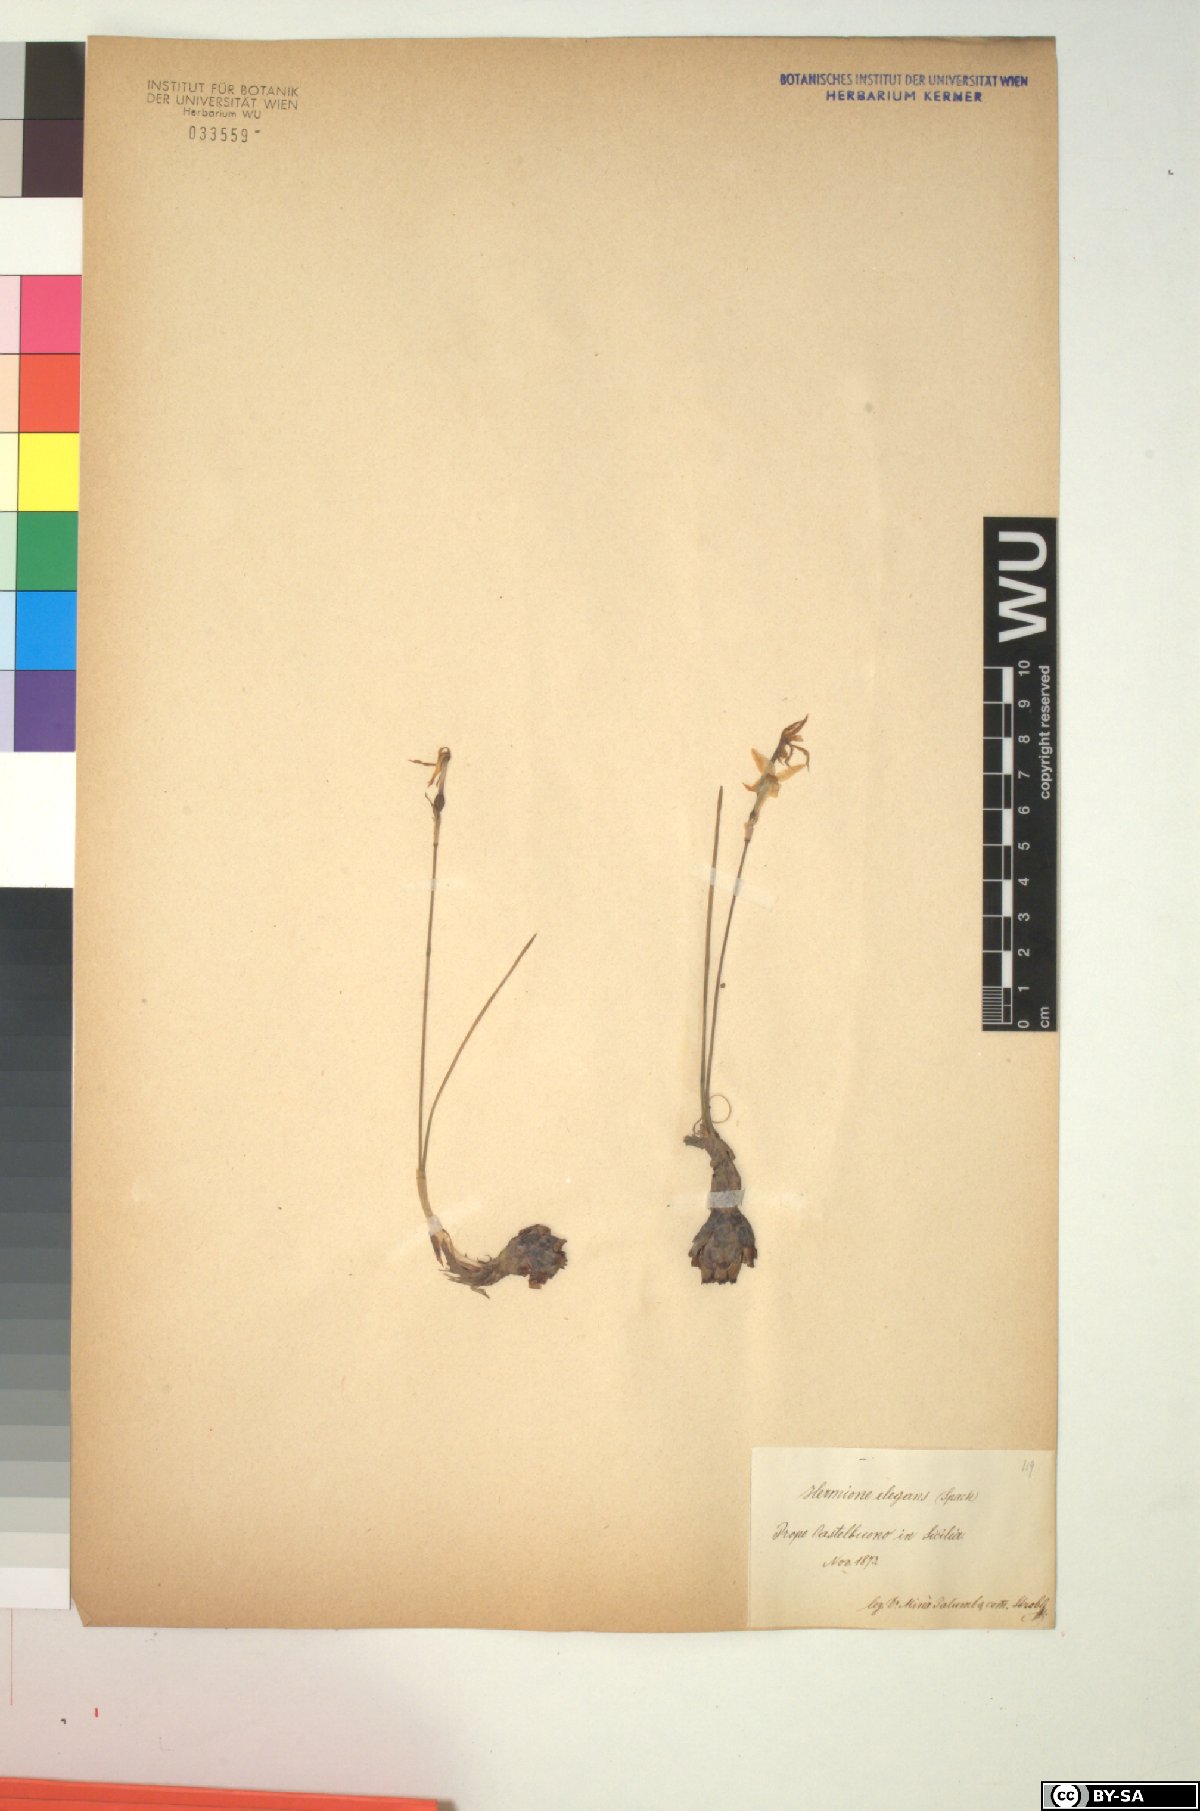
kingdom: Plantae
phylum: Tracheophyta
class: Liliopsida
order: Asparagales
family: Amaryllidaceae
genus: Narcissus
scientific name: Narcissus obsoletus
